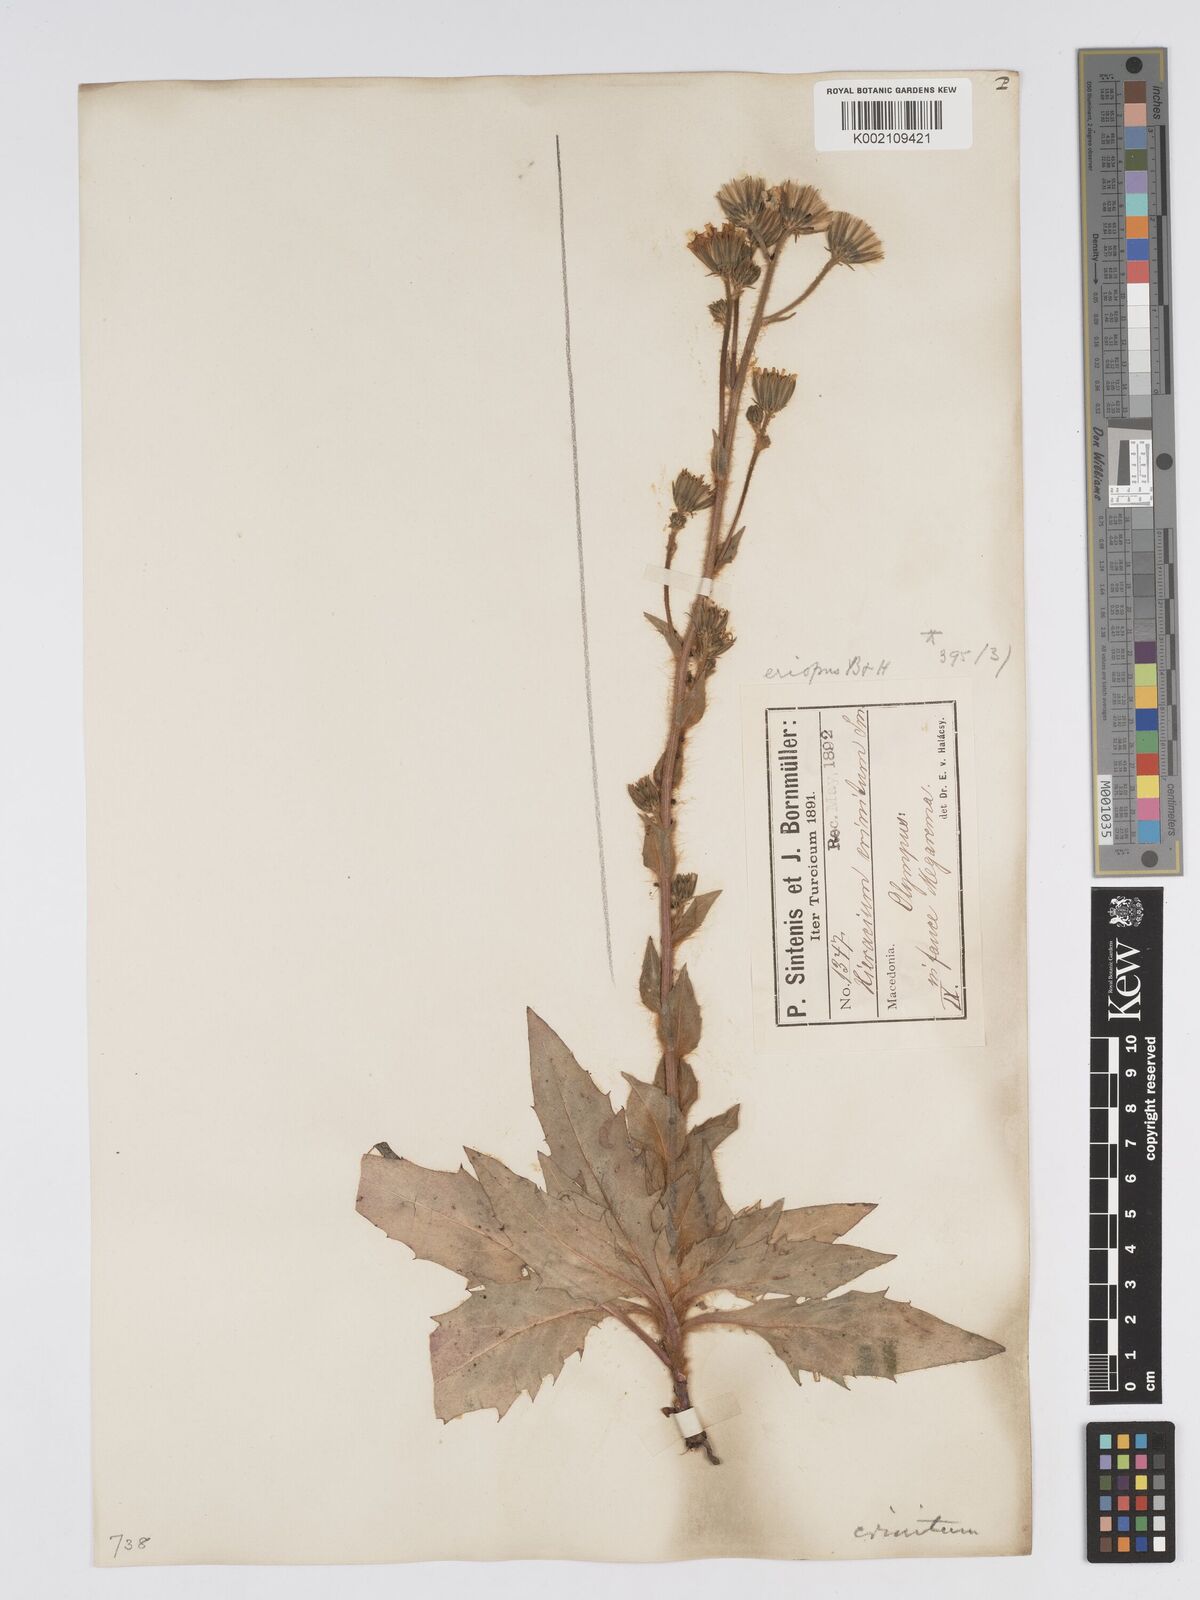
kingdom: Plantae
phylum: Tracheophyta
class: Magnoliopsida
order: Asterales
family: Asteraceae
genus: Hieracium
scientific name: Hieracium racemosum
